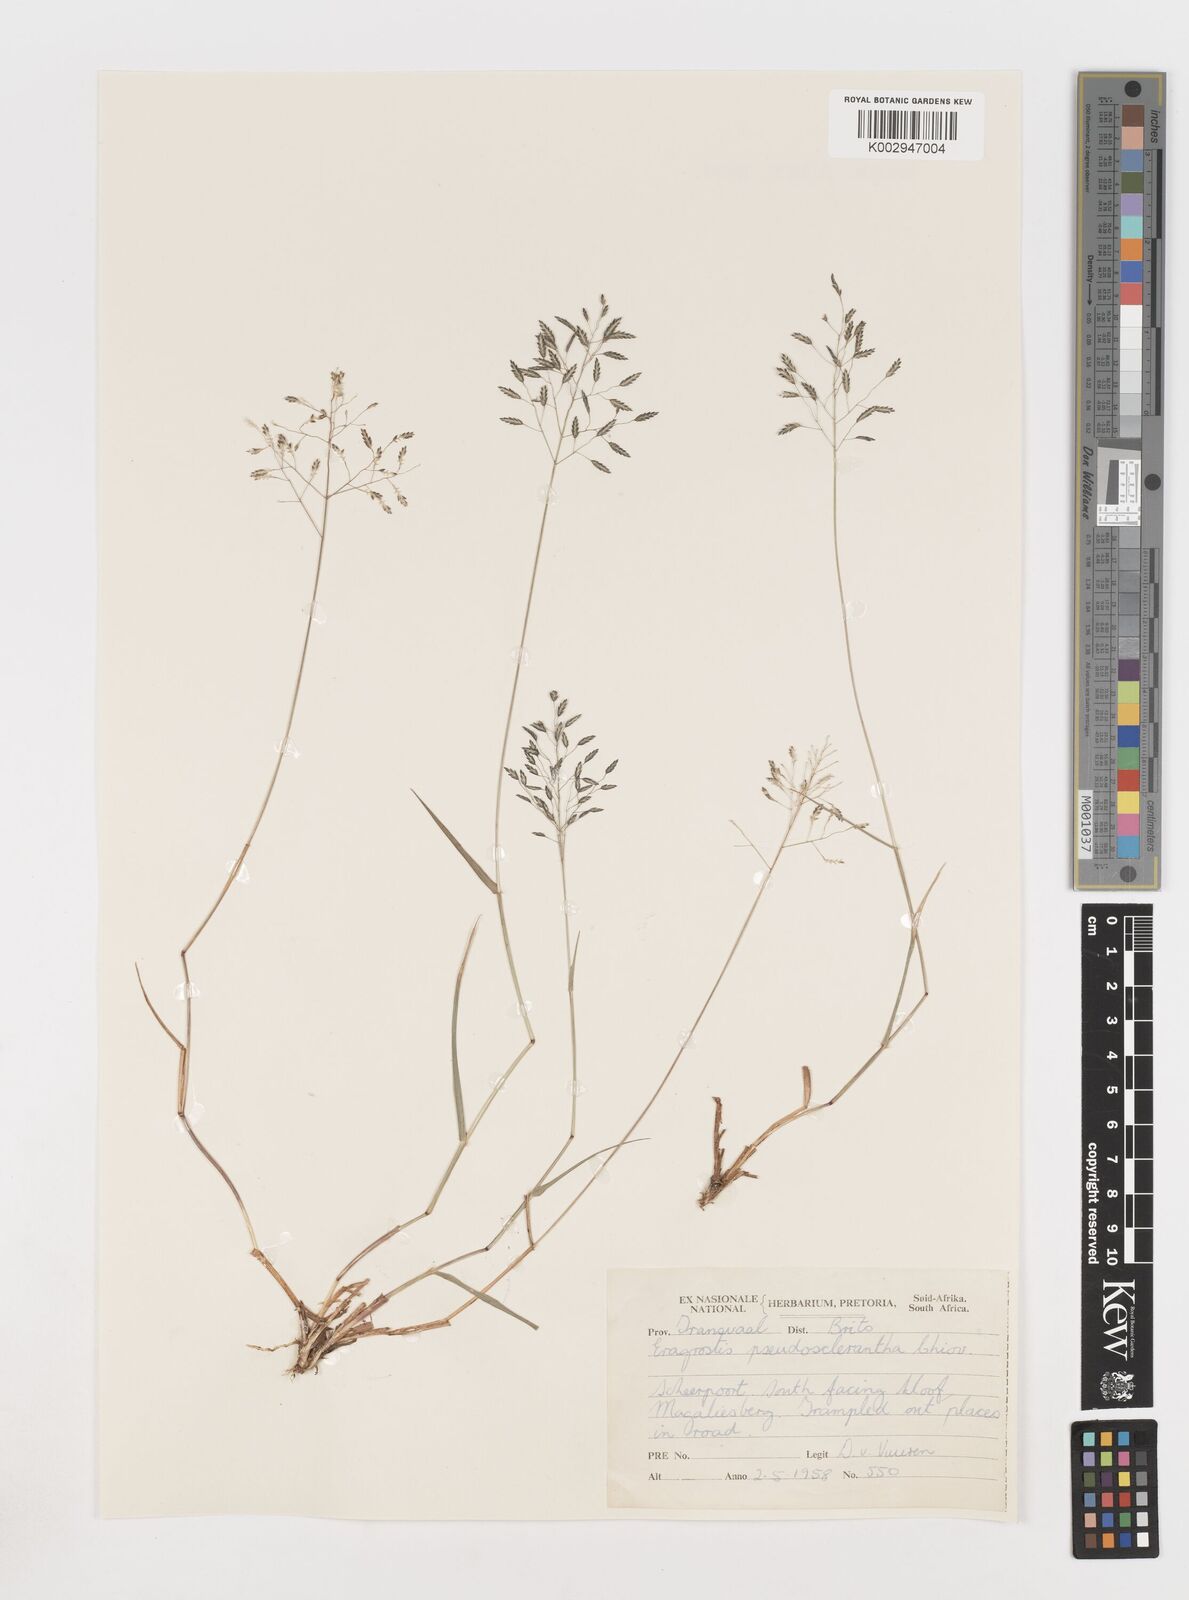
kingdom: Plantae
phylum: Tracheophyta
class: Liliopsida
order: Poales
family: Poaceae
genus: Eragrostis
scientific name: Eragrostis patentipilosa
